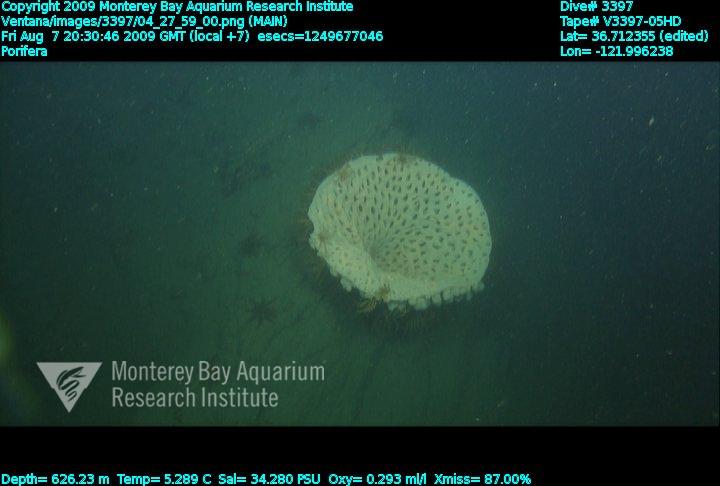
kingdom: Animalia
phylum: Porifera
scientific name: Porifera
